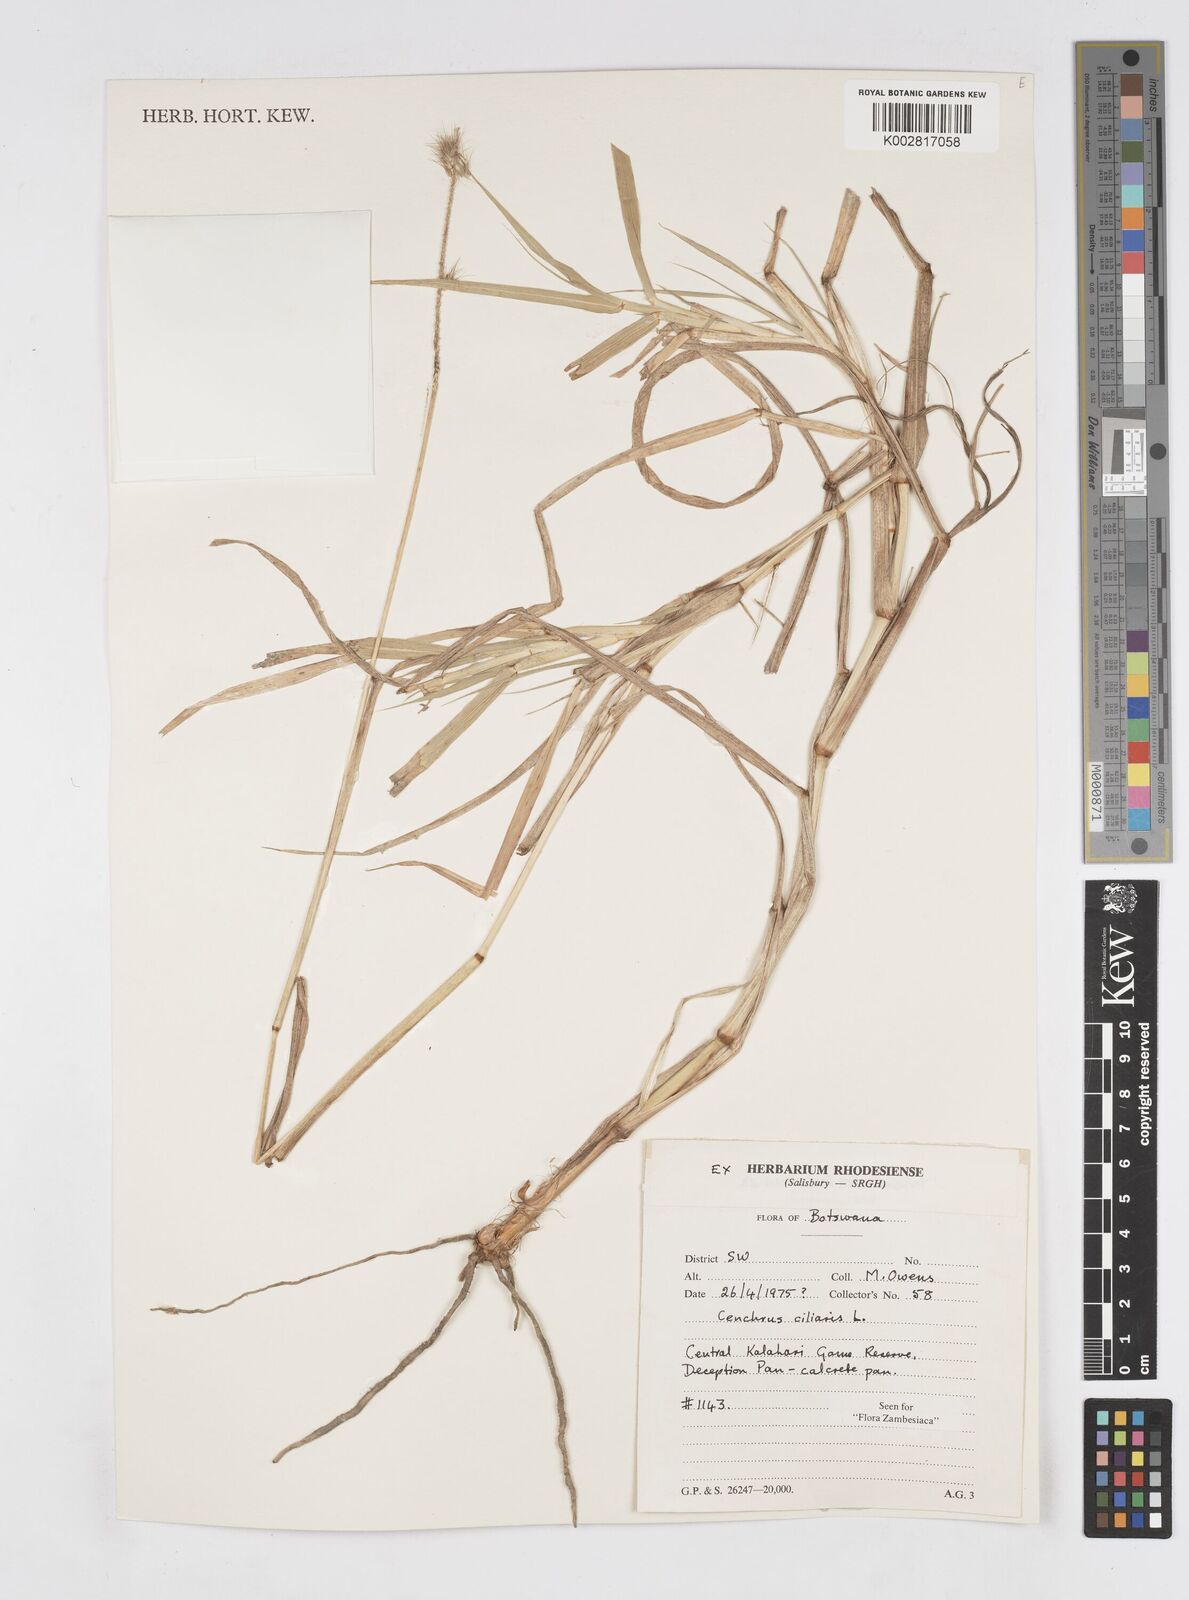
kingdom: Plantae
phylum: Tracheophyta
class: Liliopsida
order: Poales
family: Poaceae
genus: Cenchrus
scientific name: Cenchrus ciliaris
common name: Buffelgrass
